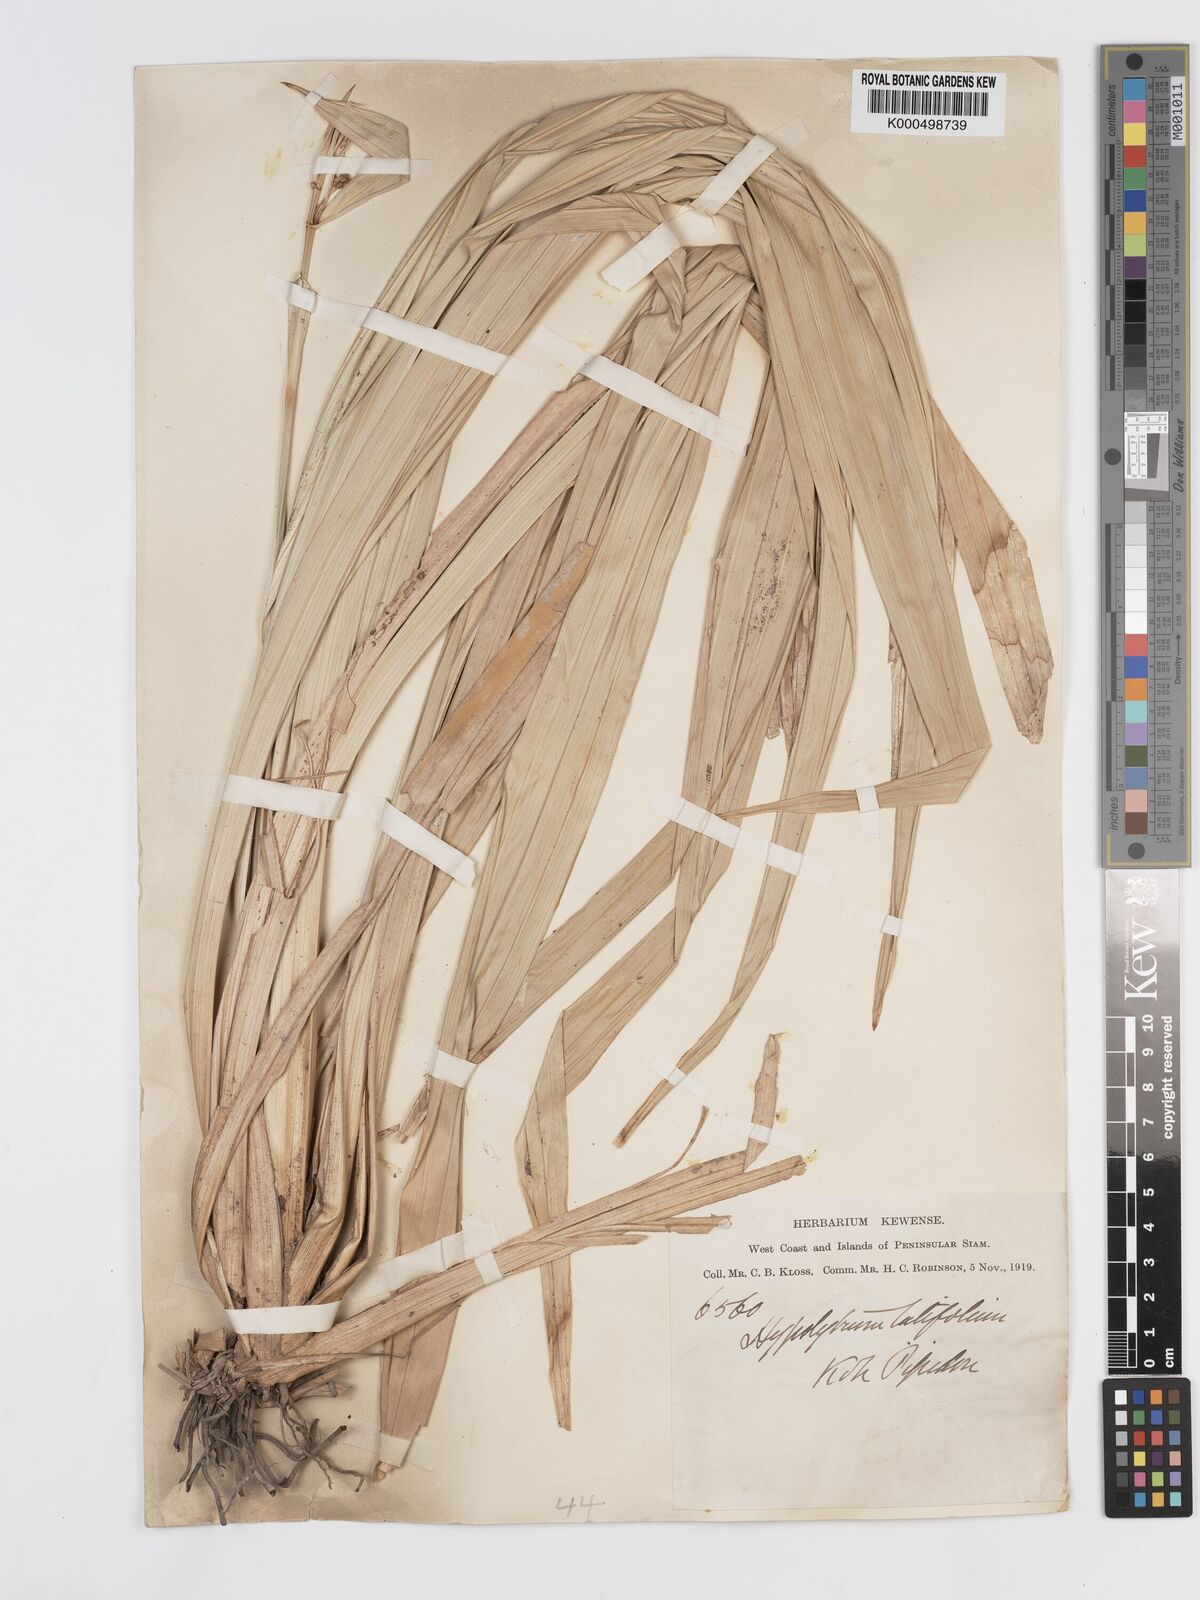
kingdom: Plantae
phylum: Tracheophyta
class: Liliopsida
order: Poales
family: Cyperaceae
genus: Hypolytrum
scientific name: Hypolytrum nemorum
